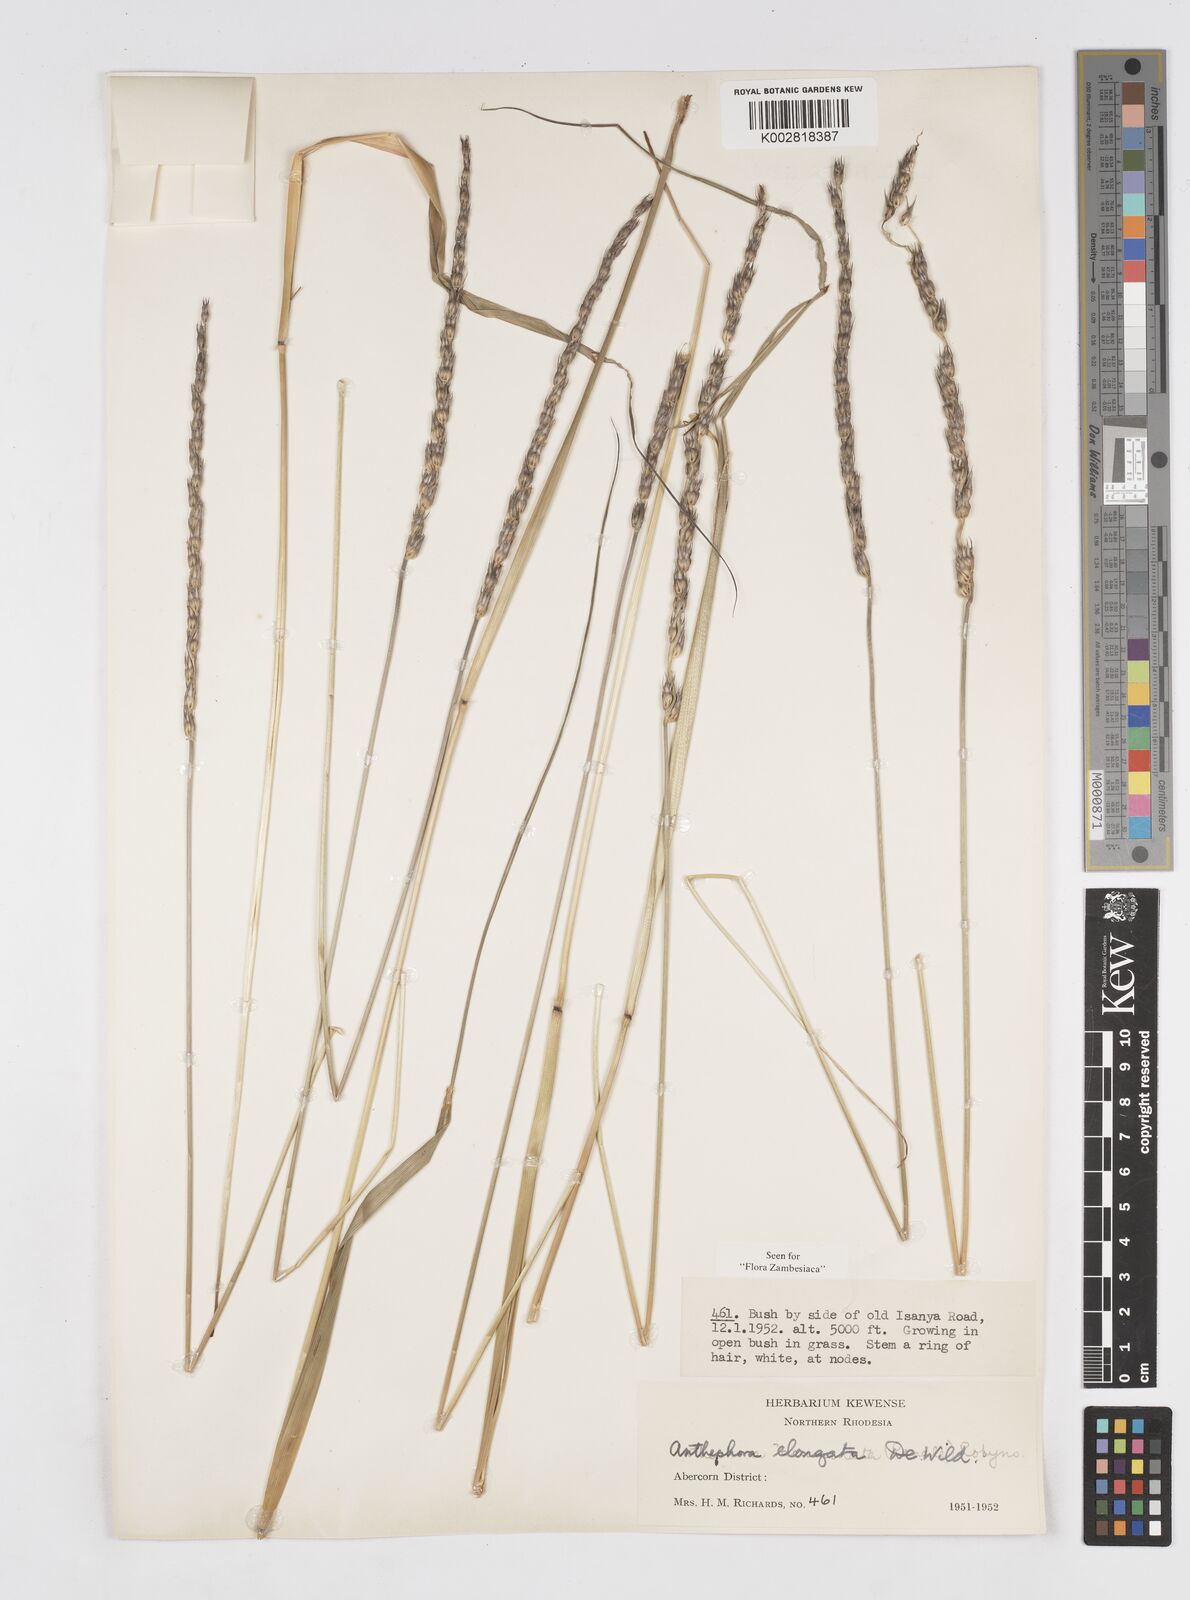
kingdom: Plantae
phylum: Tracheophyta
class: Liliopsida
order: Poales
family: Poaceae
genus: Anthephora
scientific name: Anthephora elongata
